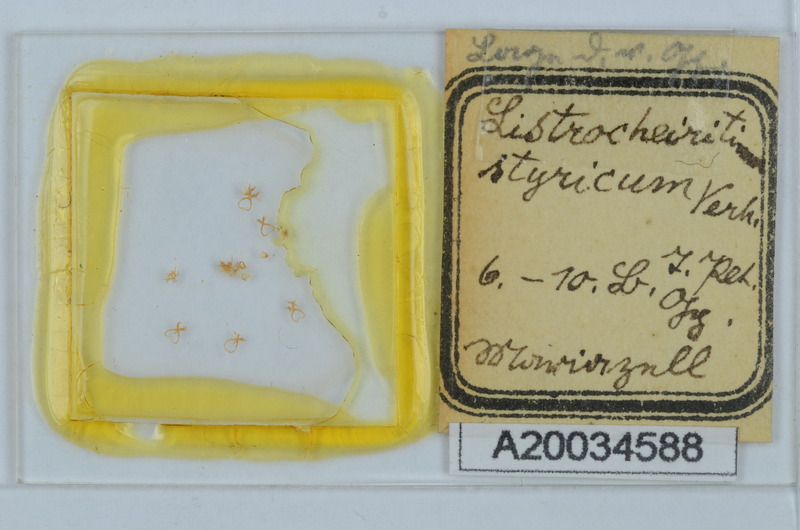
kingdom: Animalia
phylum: Arthropoda
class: Diplopoda
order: Chordeumatida
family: Craspedosomatidae
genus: Listrocheiritium
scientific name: Listrocheiritium styricum
